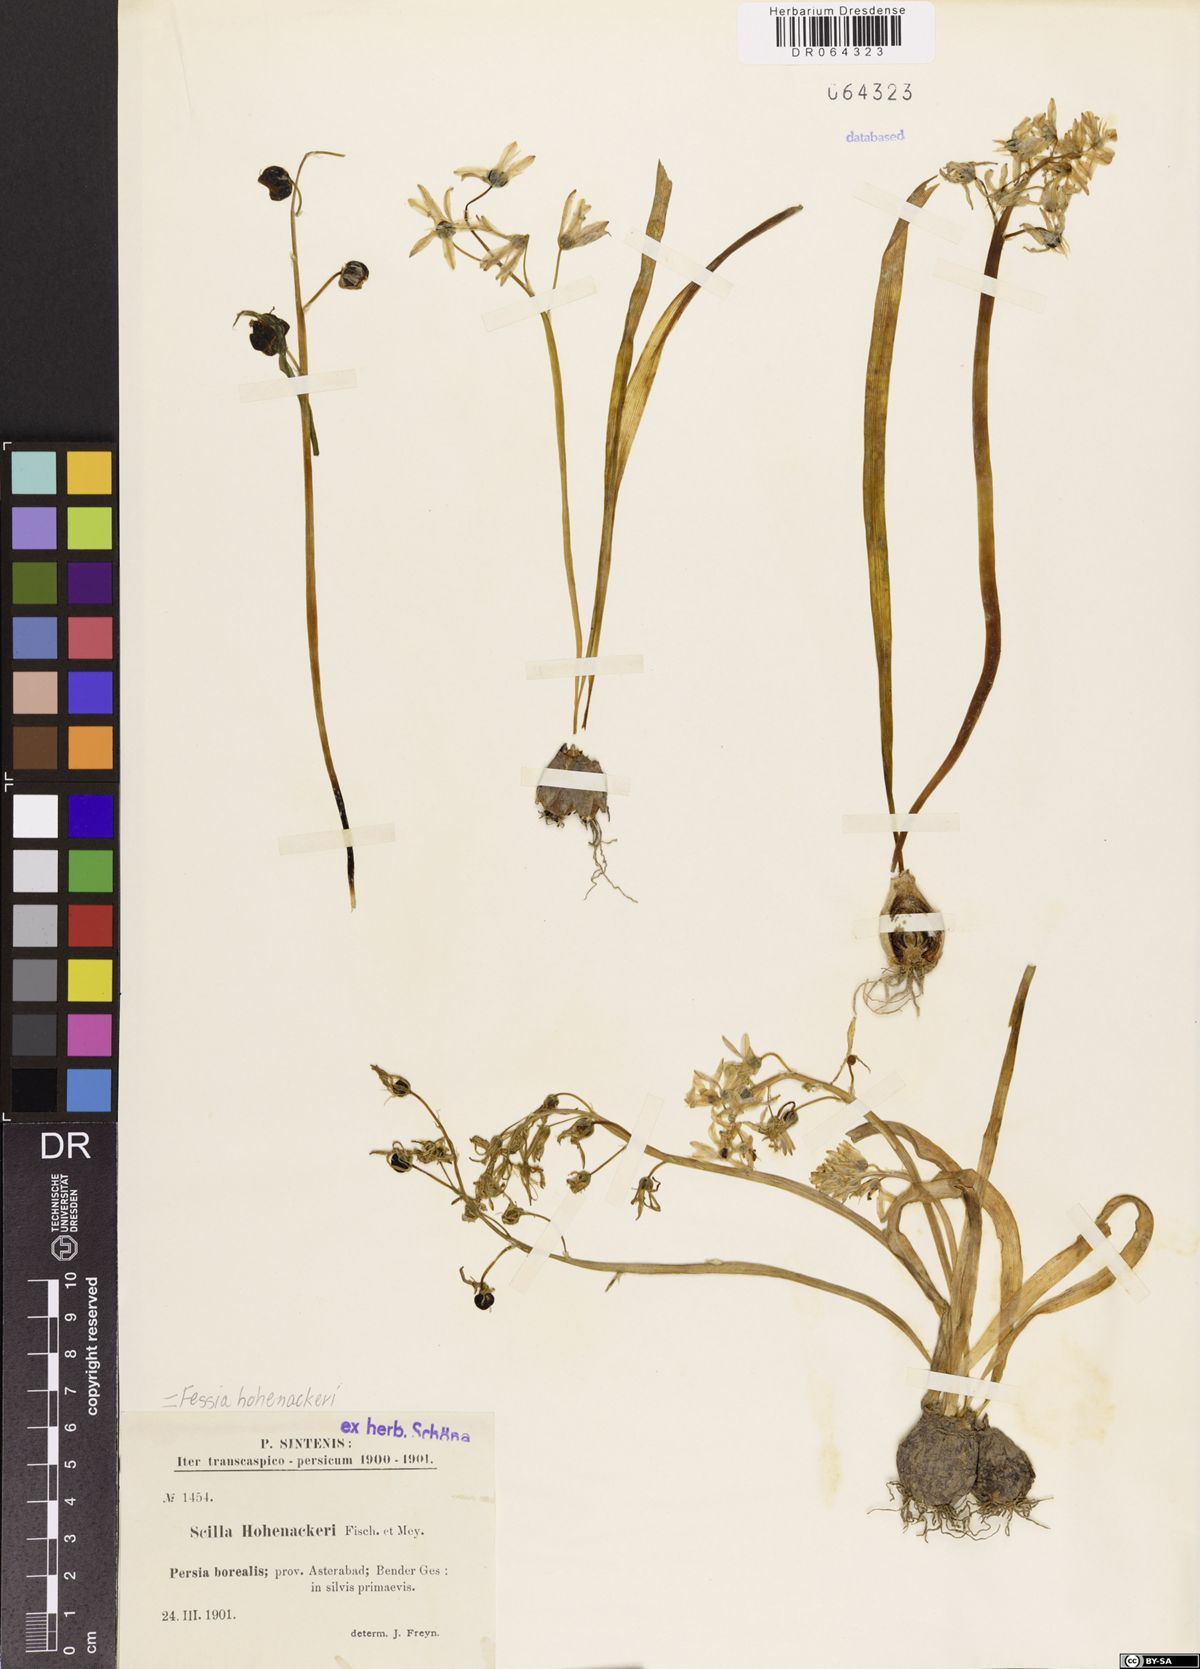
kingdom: Plantae
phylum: Tracheophyta
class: Liliopsida
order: Asparagales
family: Asparagaceae
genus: Fessia
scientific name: Fessia hohenackeri
